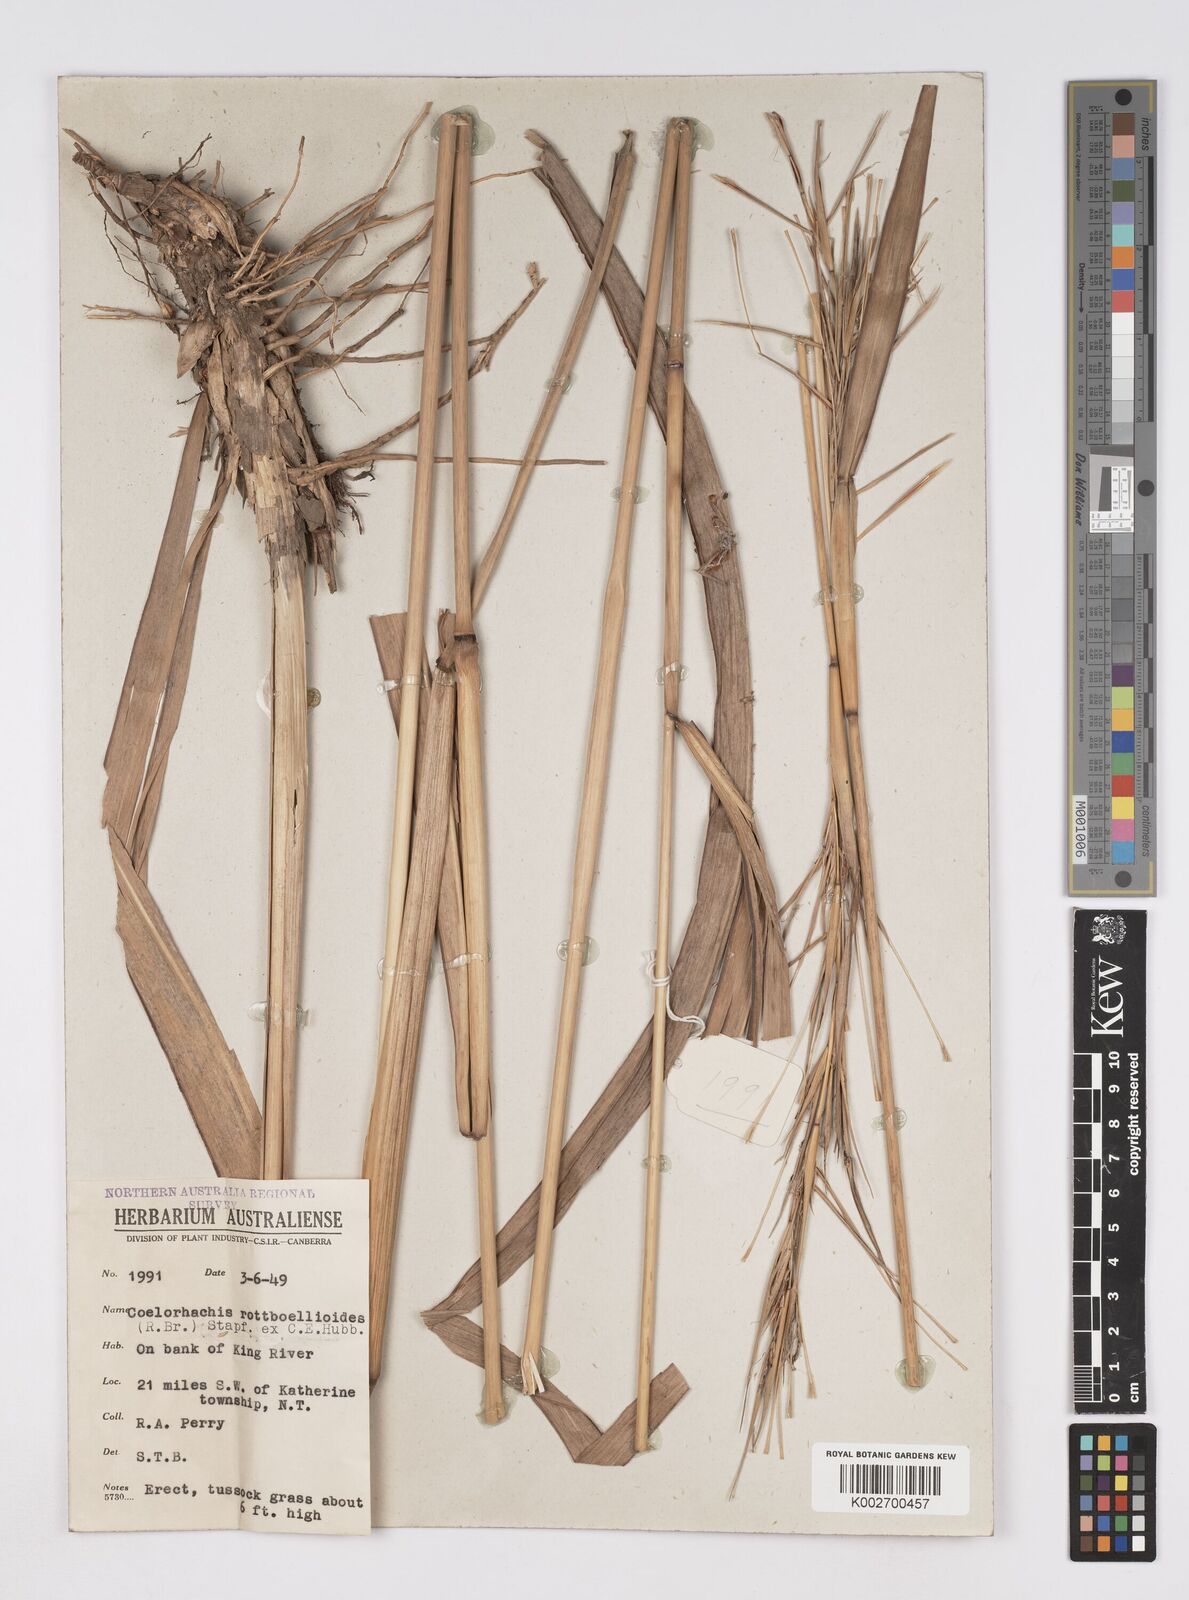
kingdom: Plantae
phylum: Tracheophyta
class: Liliopsida
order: Poales
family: Poaceae
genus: Rottboellia
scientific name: Rottboellia rottboellioides
